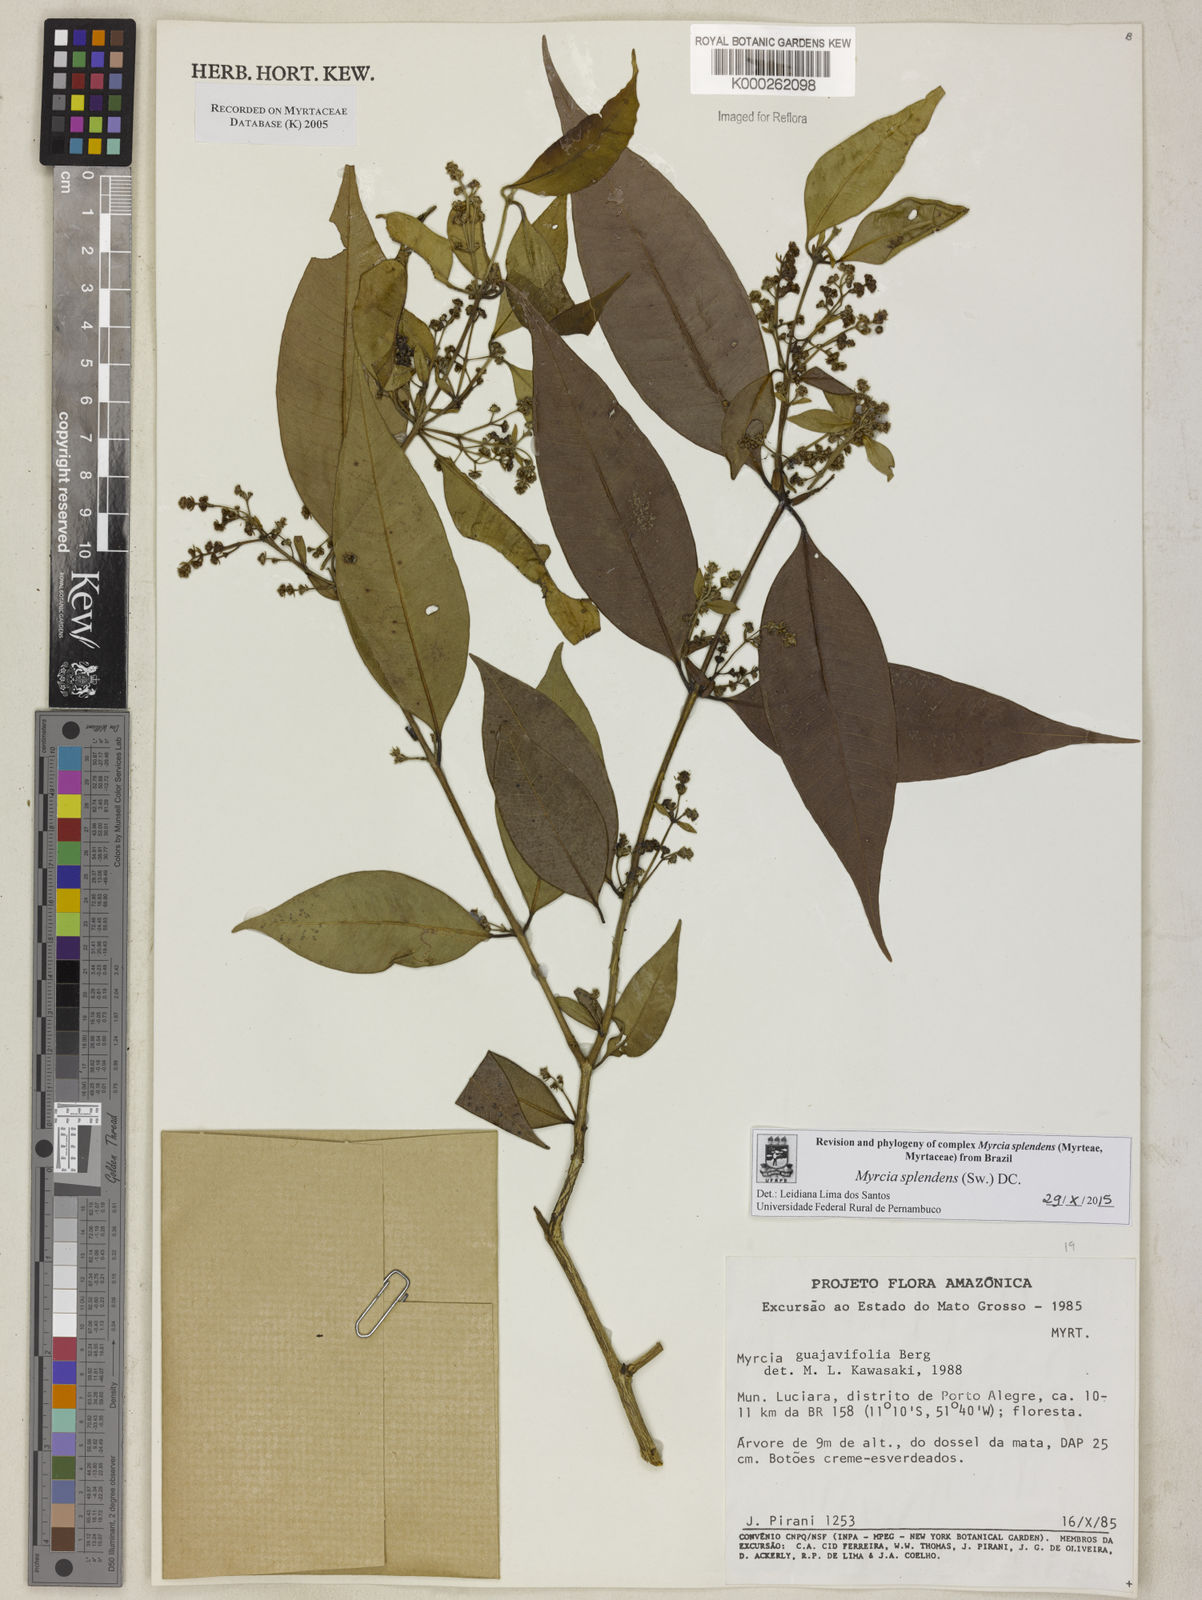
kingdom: Plantae
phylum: Tracheophyta
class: Magnoliopsida
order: Myrtales
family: Myrtaceae
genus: Myrcia
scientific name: Myrcia splendens
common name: Surinam cherry
